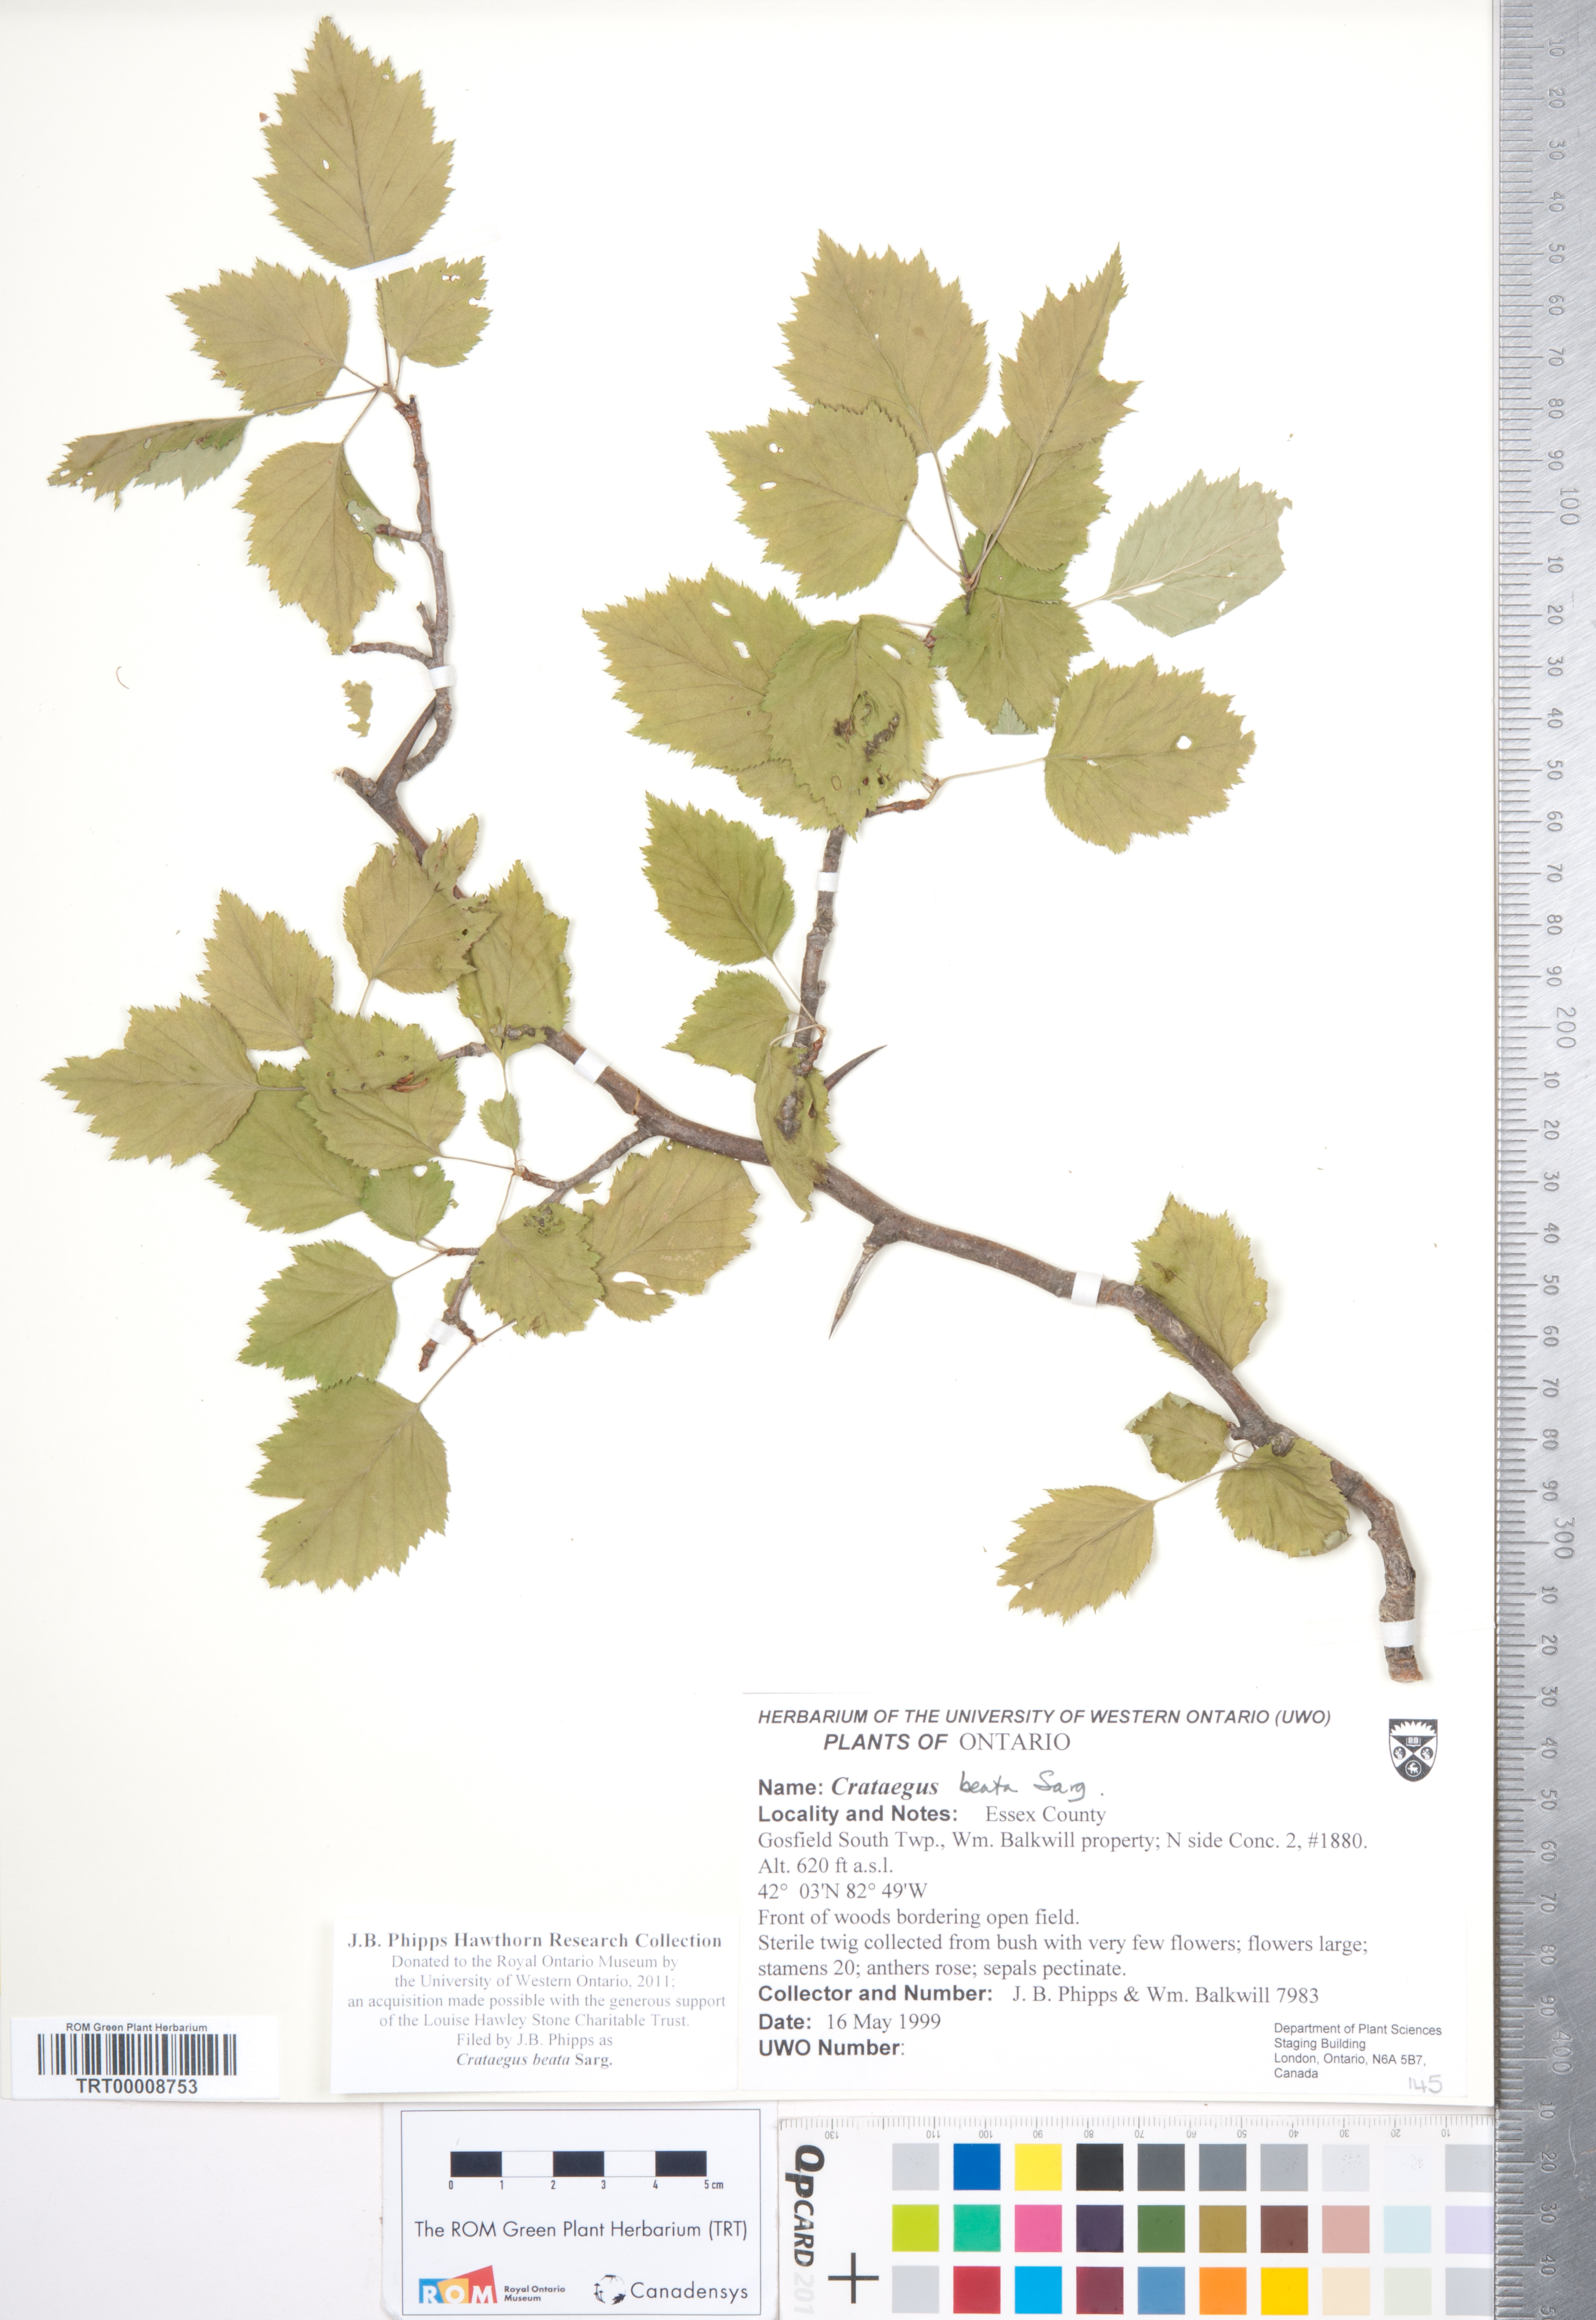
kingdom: Plantae
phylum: Tracheophyta
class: Magnoliopsida
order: Rosales
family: Rosaceae
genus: Crataegus
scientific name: Crataegus beata
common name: Dunbar's hawthorn
